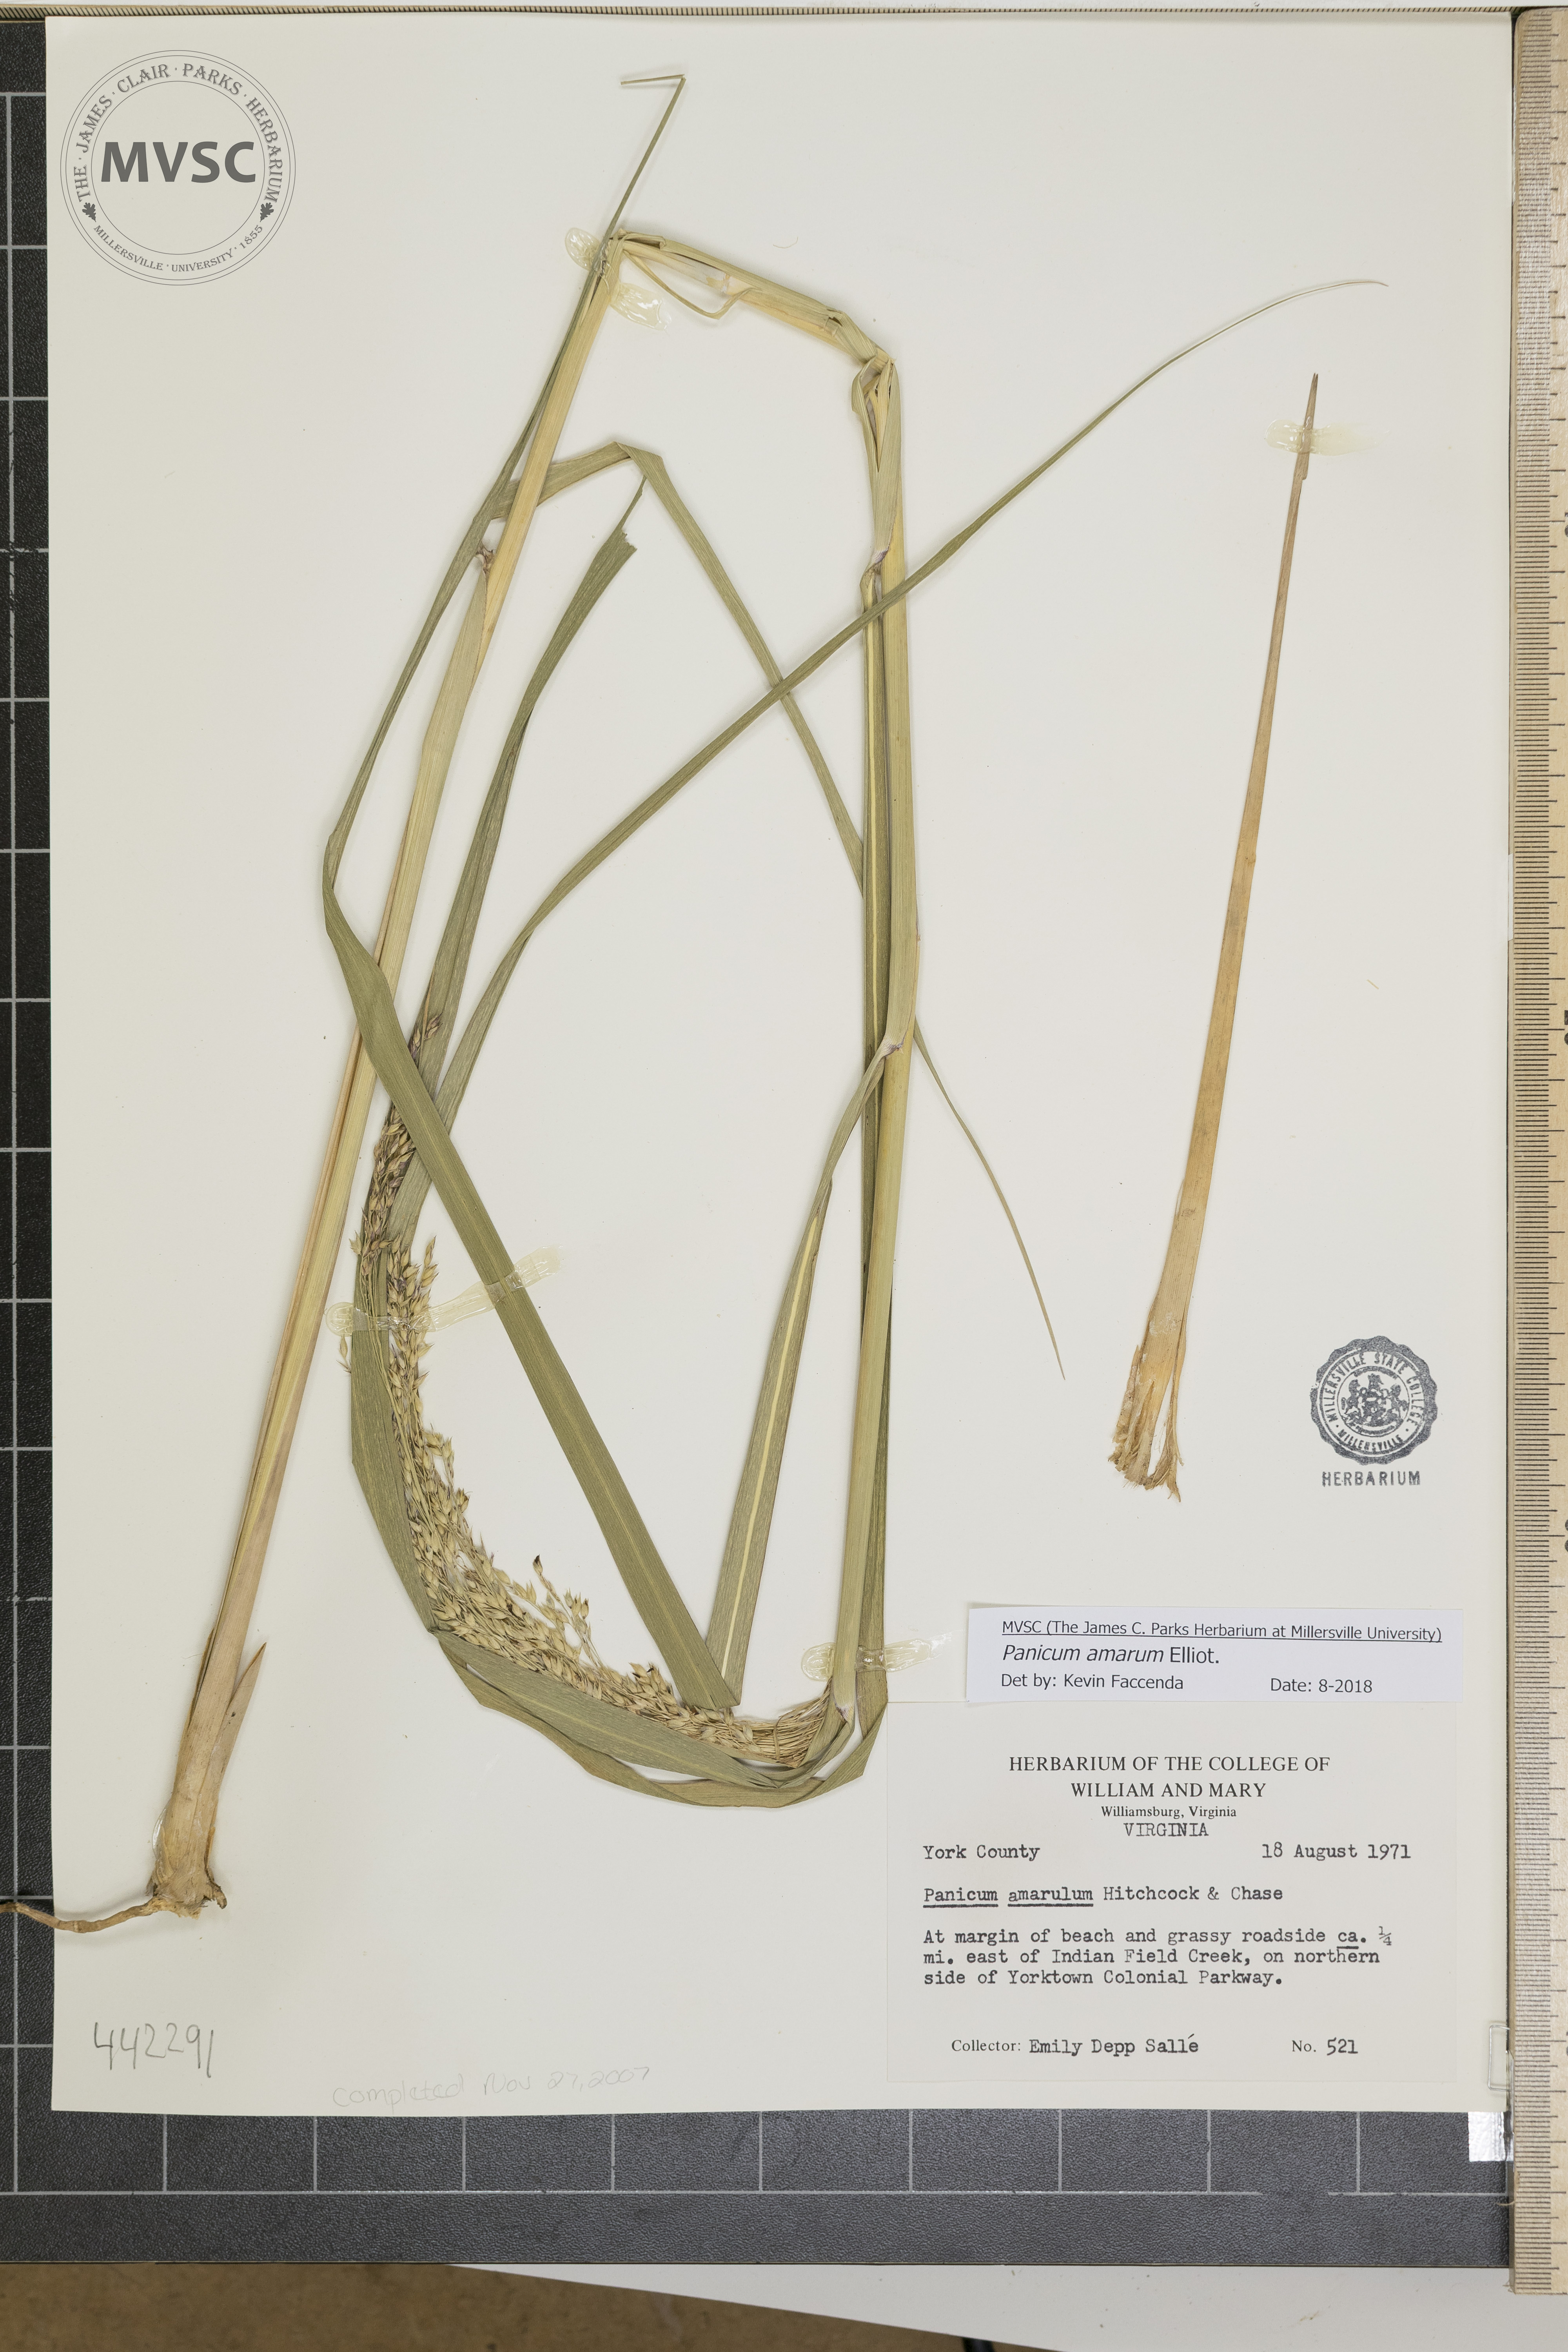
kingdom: Plantae
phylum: Tracheophyta
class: Liliopsida
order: Poales
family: Poaceae
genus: Panicum
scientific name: Panicum amarum
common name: Bitter panicum
